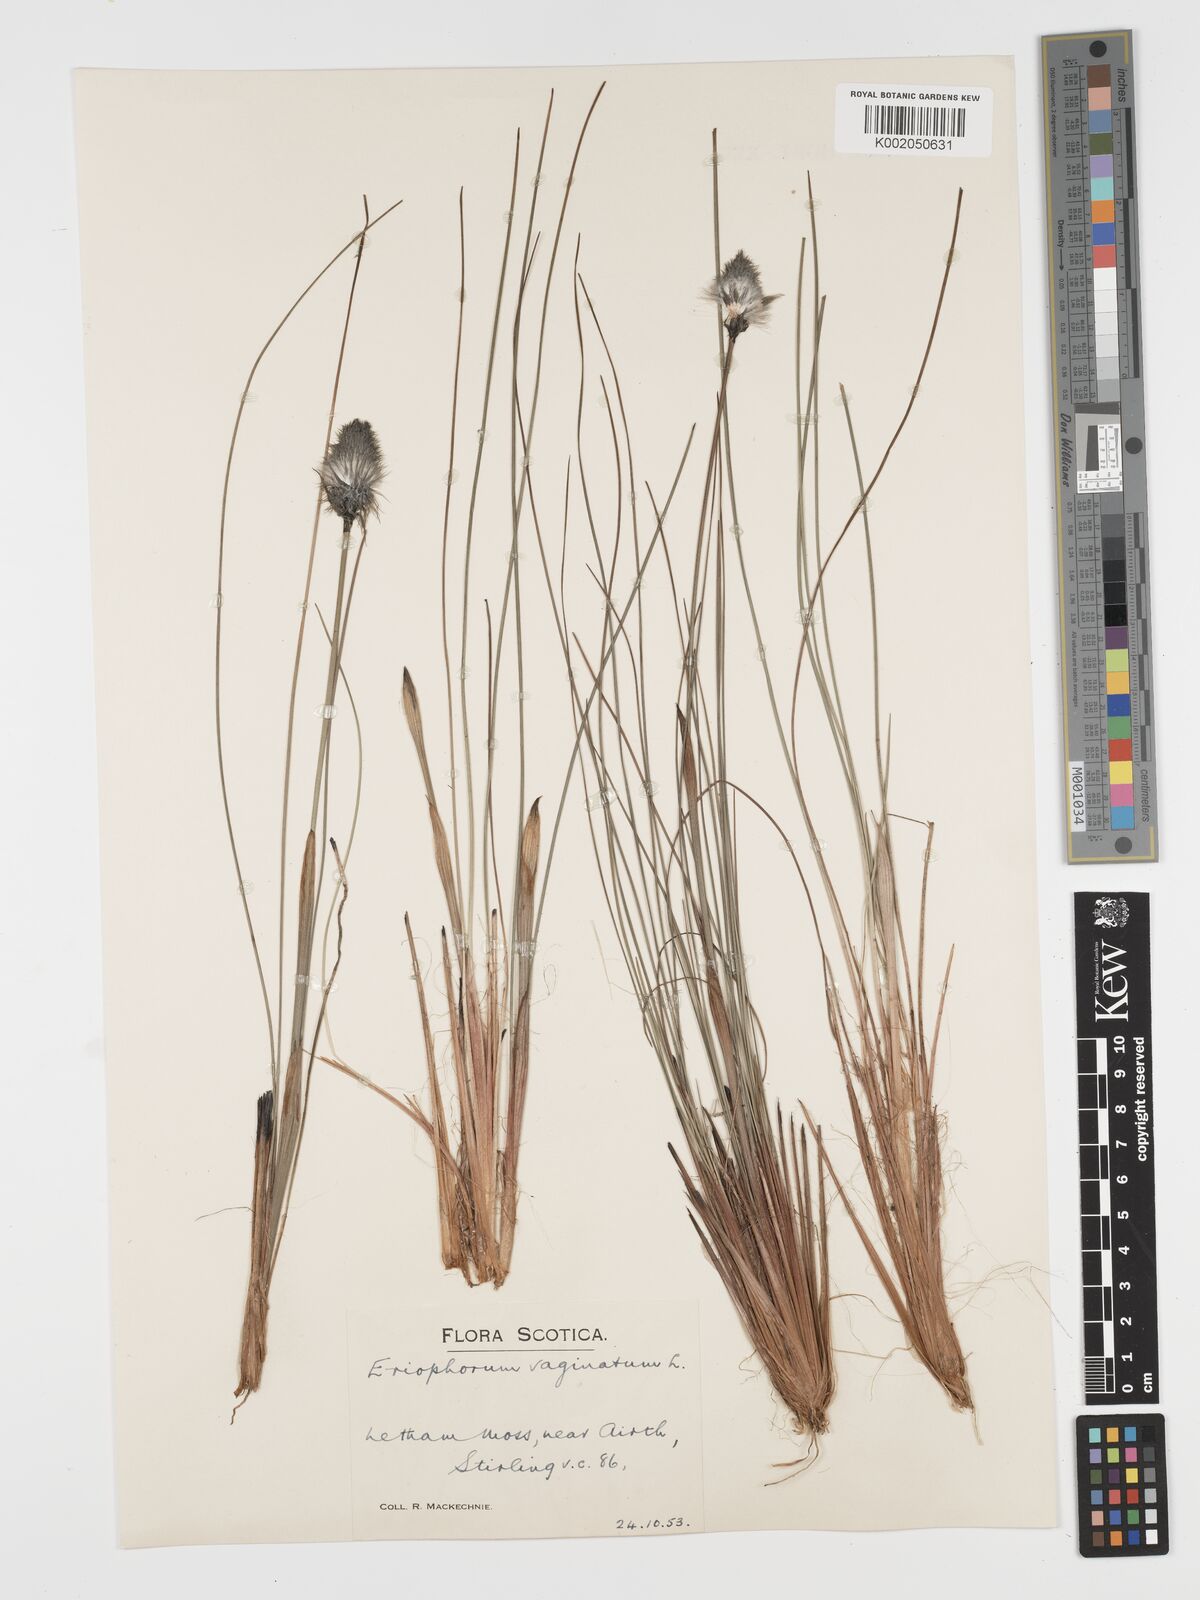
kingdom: Plantae
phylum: Tracheophyta
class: Liliopsida
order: Poales
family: Cyperaceae
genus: Eriophorum
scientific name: Eriophorum vaginatum
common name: Hare's-tail cottongrass
